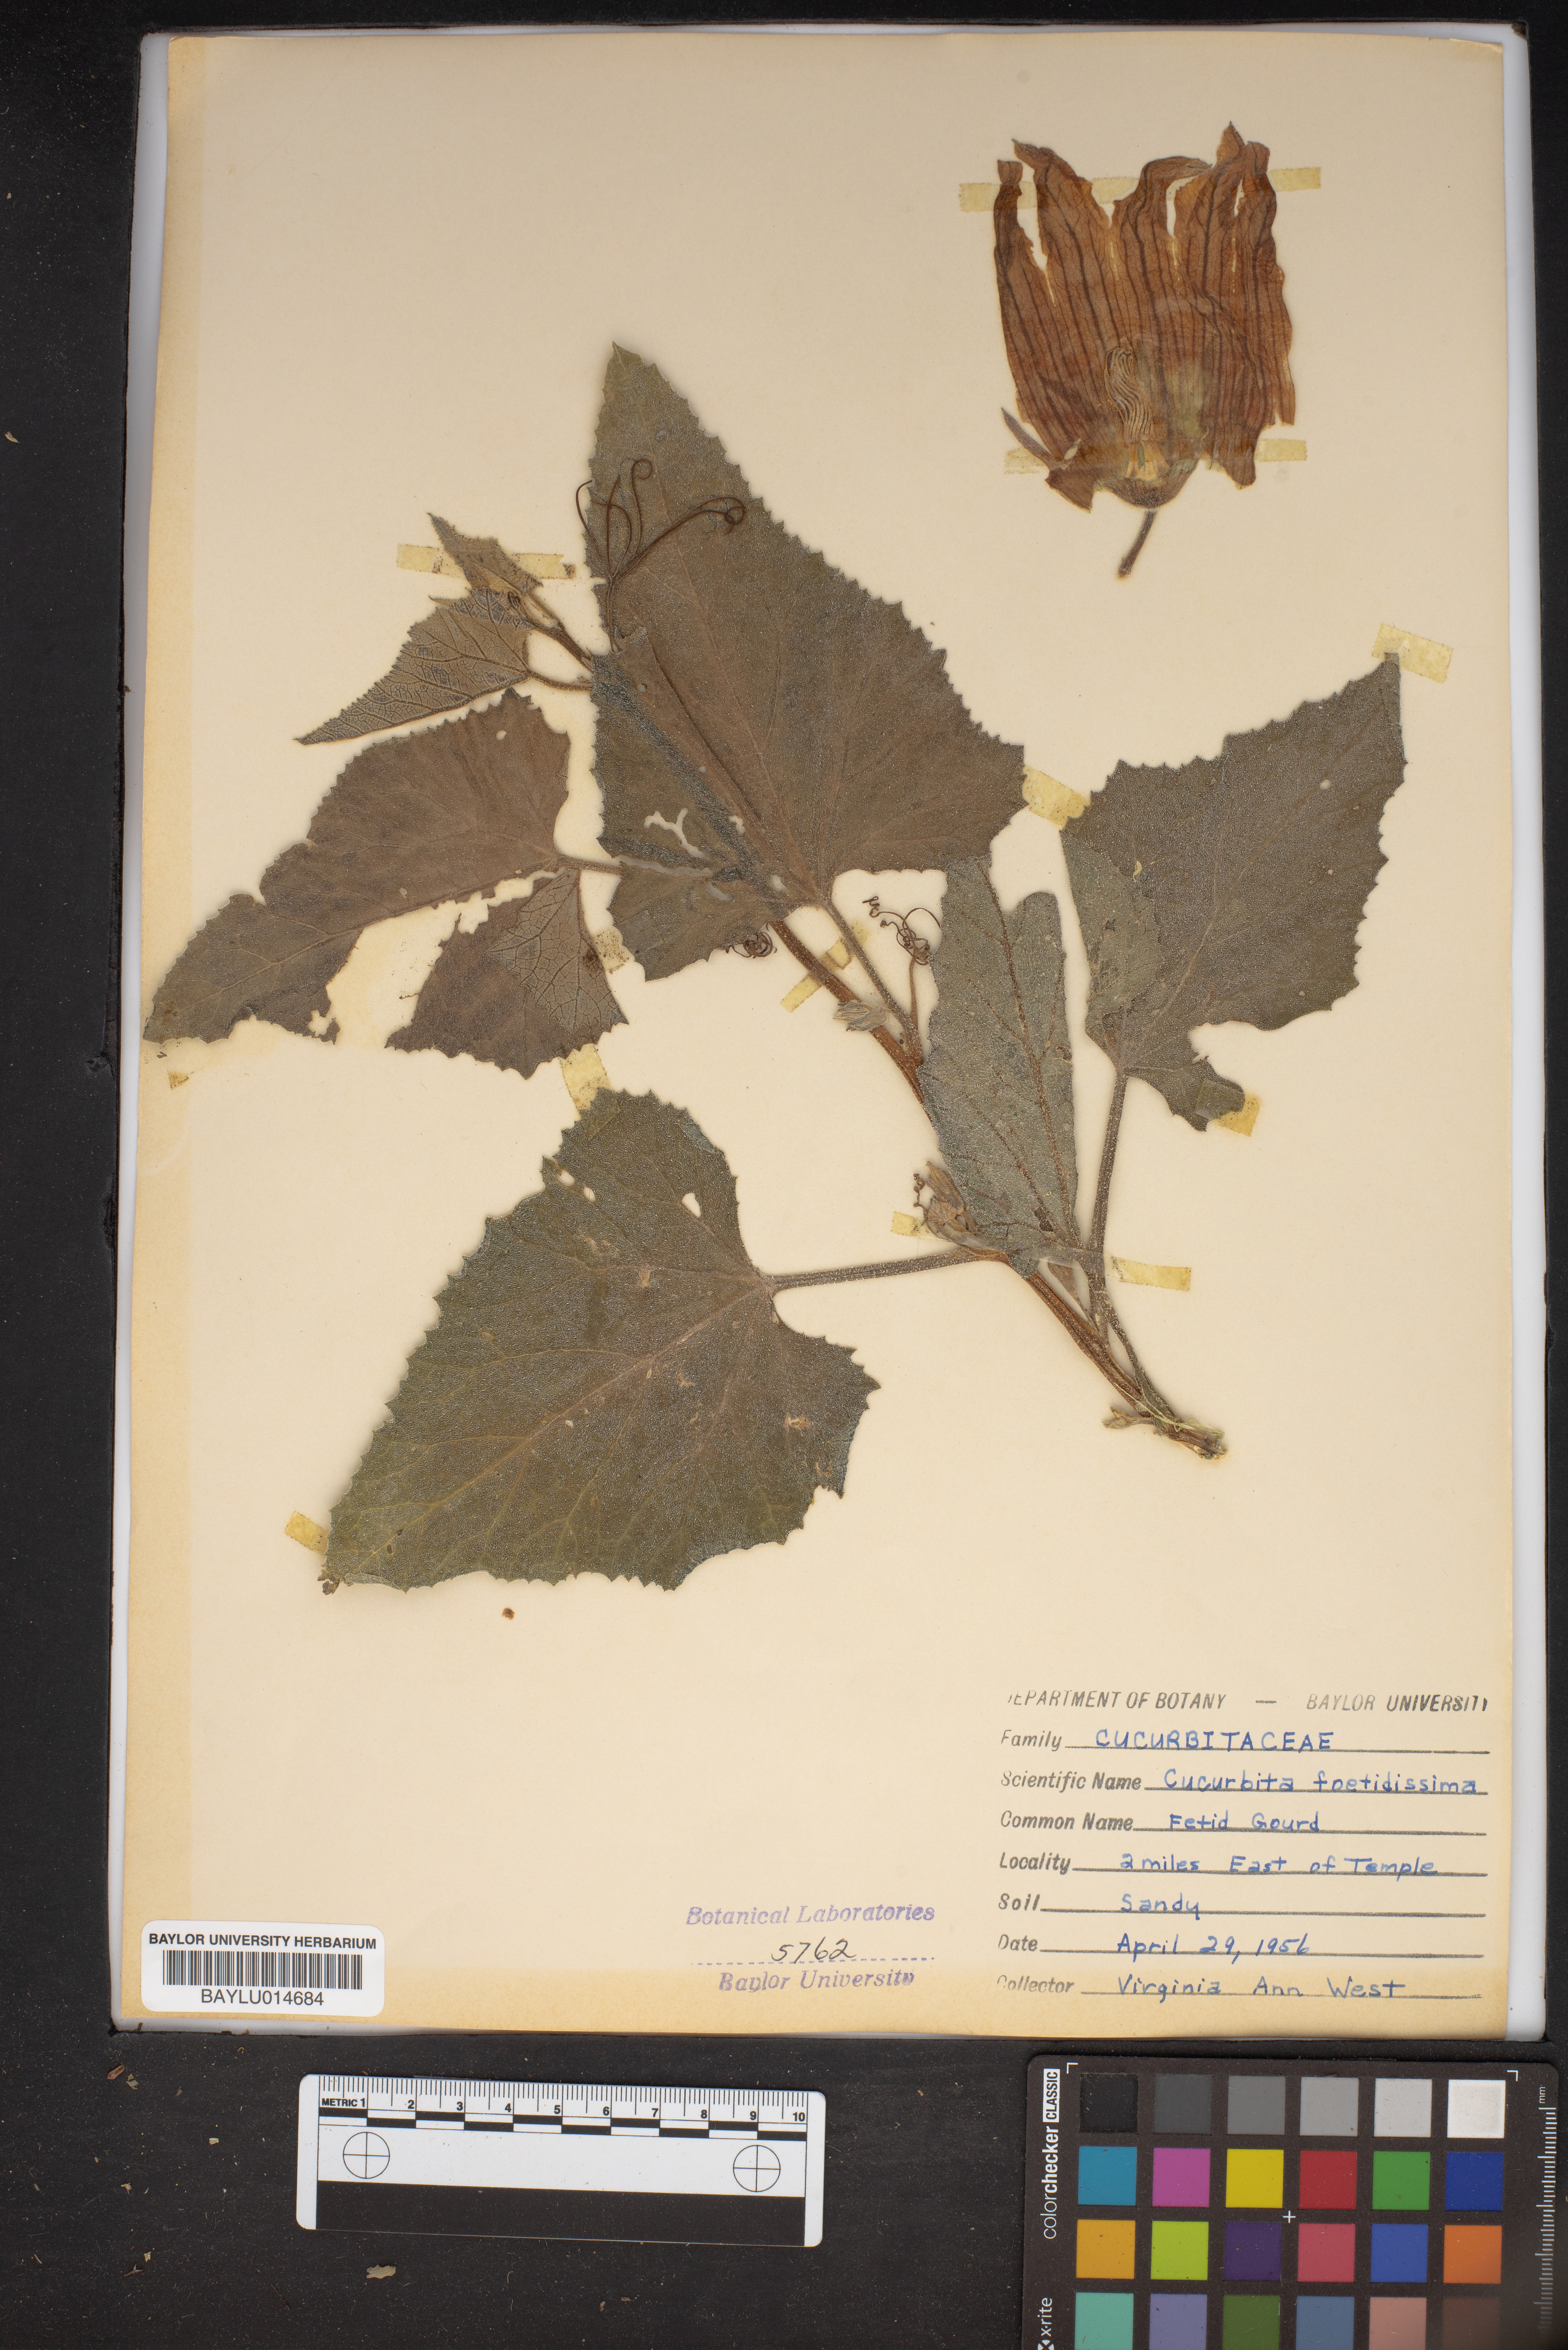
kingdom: Plantae
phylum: Tracheophyta
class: Magnoliopsida
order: Cucurbitales
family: Cucurbitaceae
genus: Cucurbita
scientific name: Cucurbita foetidissima
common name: Buffalo gourd
